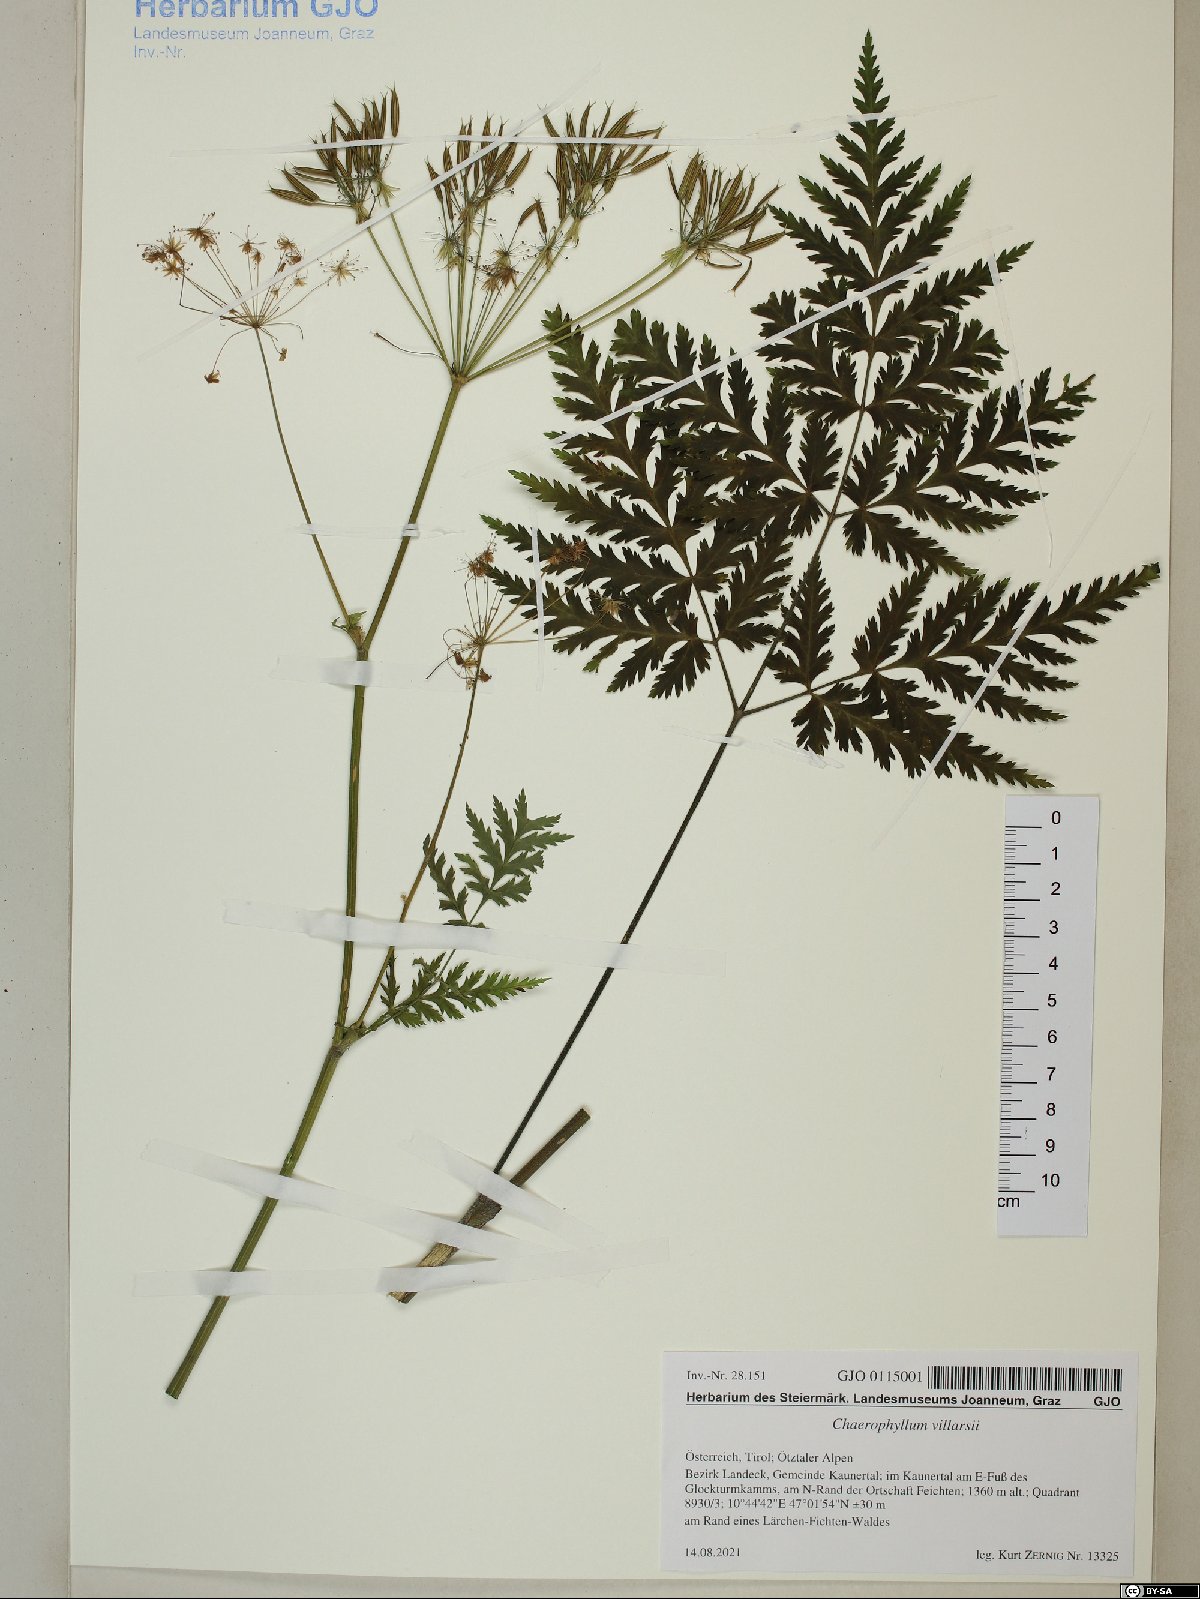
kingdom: Plantae
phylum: Tracheophyta
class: Magnoliopsida
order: Apiales
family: Apiaceae
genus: Chaerophyllum
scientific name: Chaerophyllum villarsii
